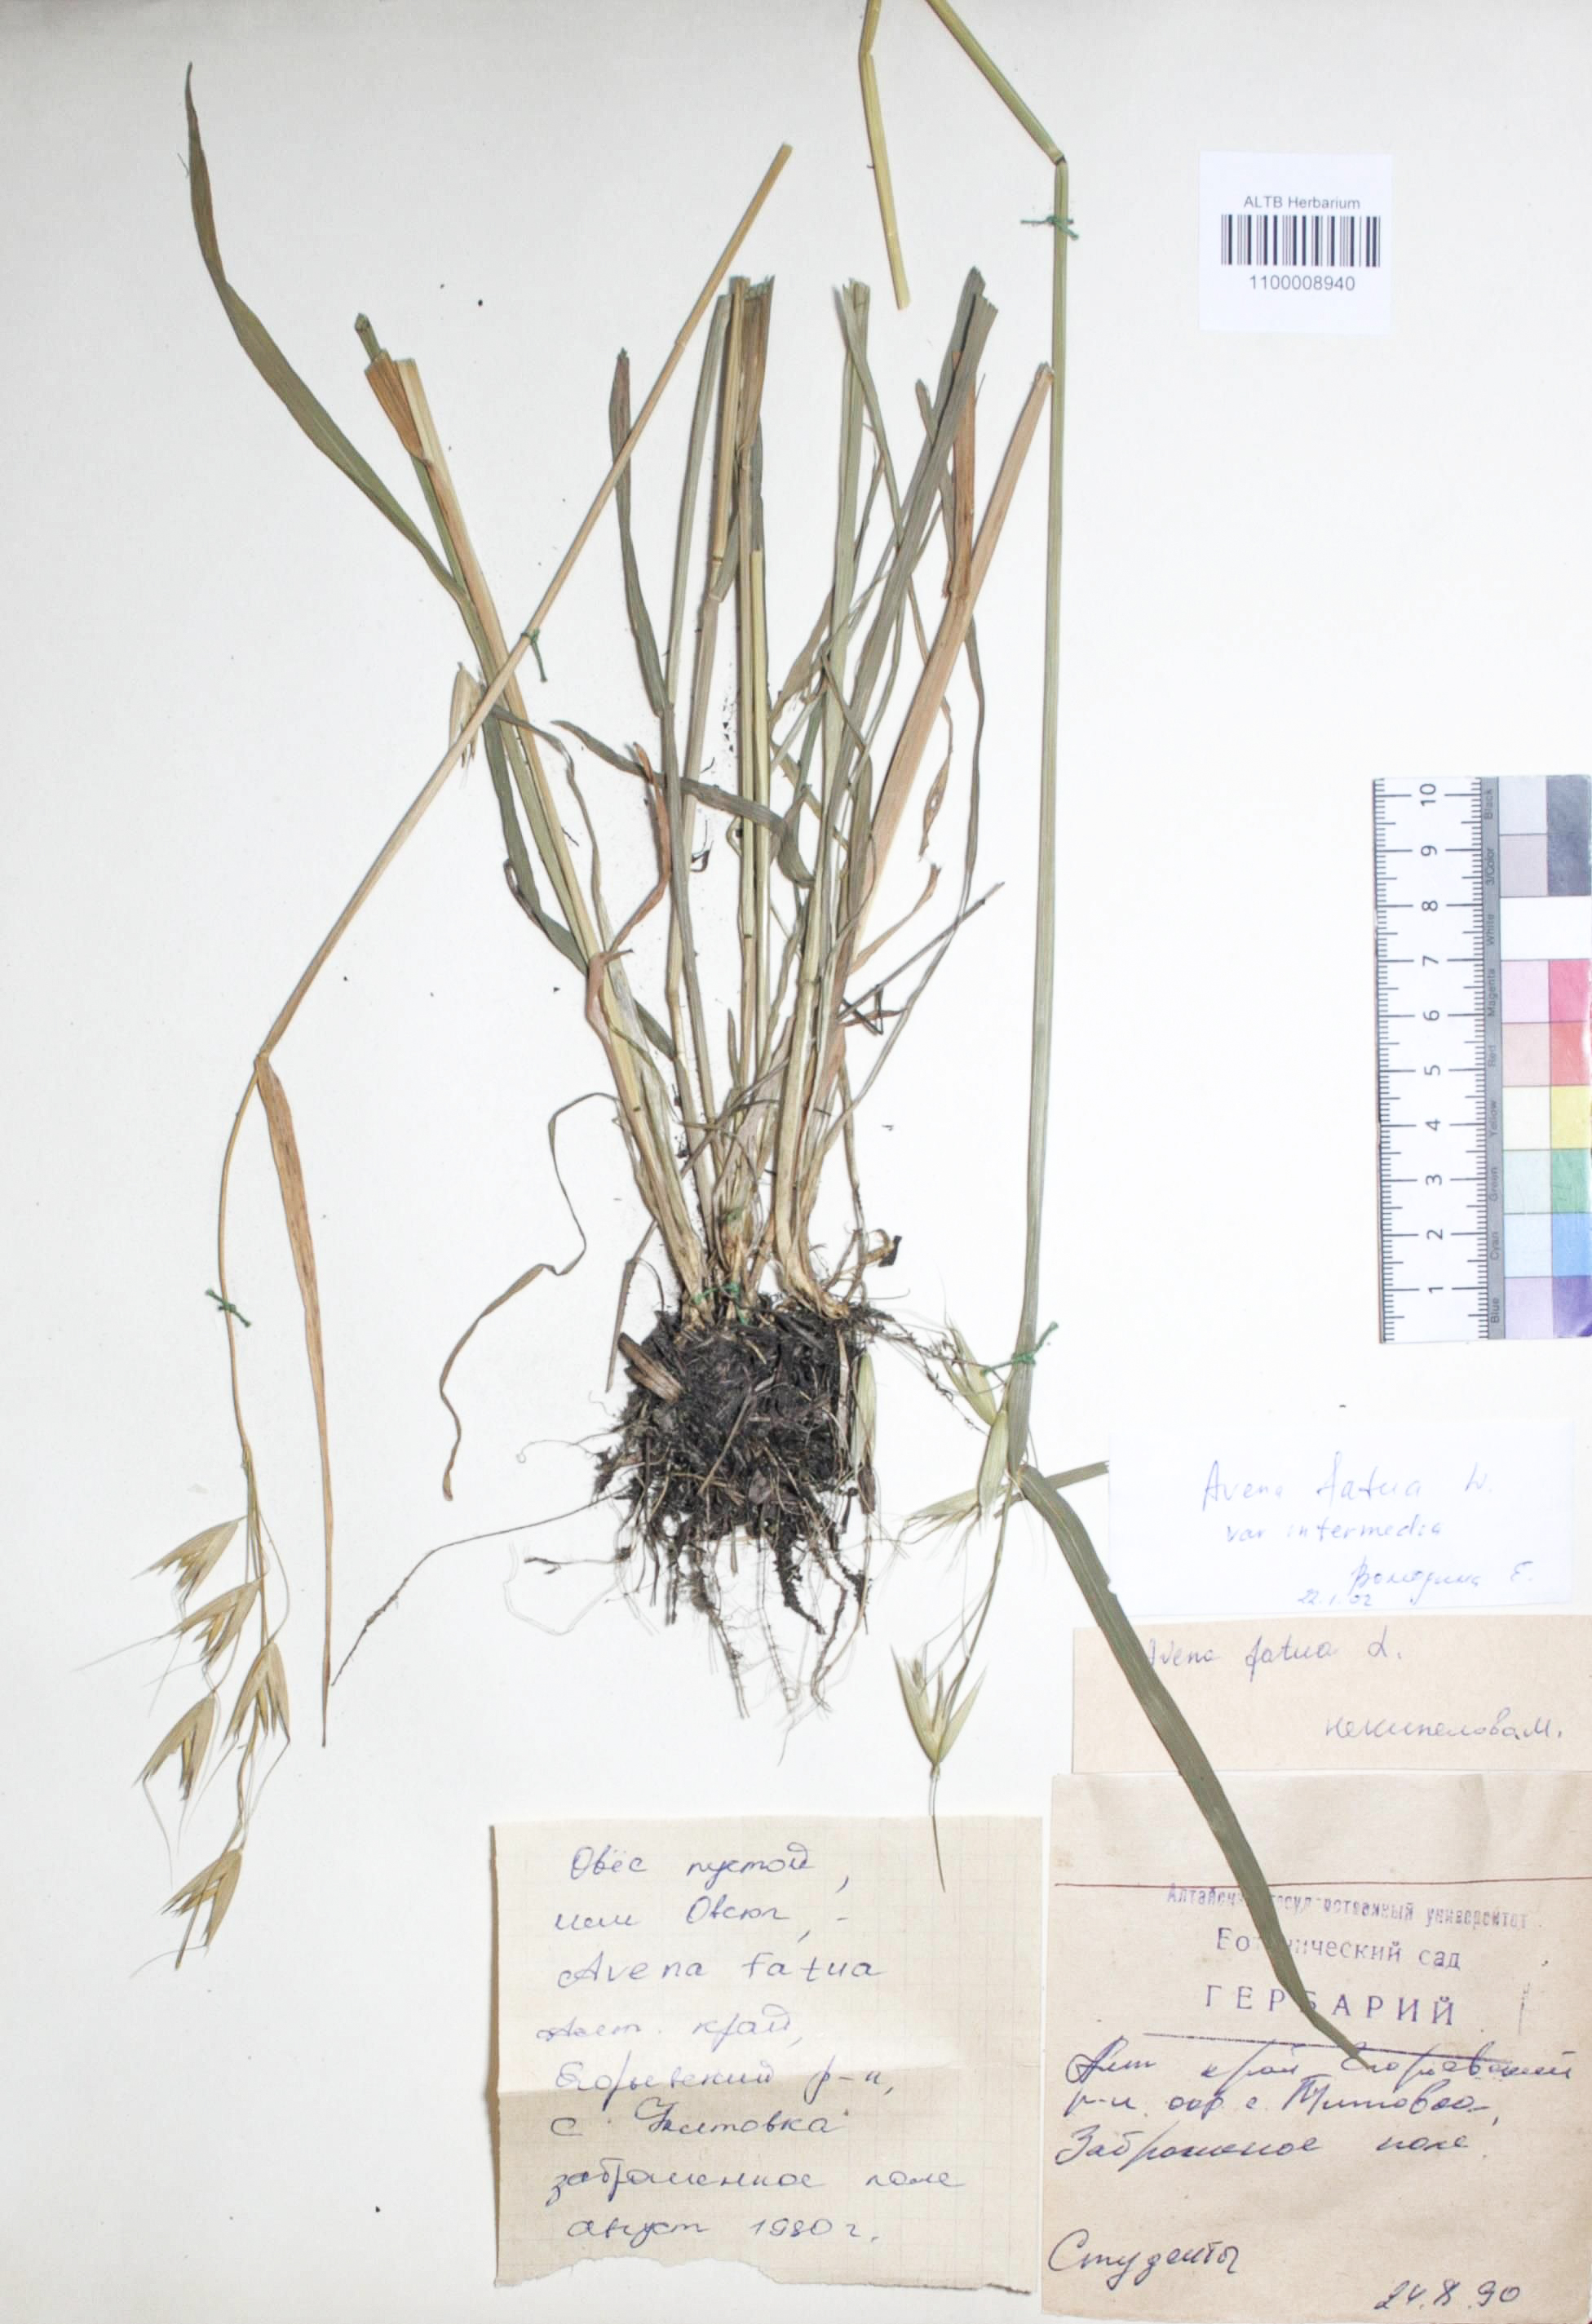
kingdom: Plantae
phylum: Tracheophyta
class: Liliopsida
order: Poales
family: Poaceae
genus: Avena
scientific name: Avena fatua
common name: Wild oat
